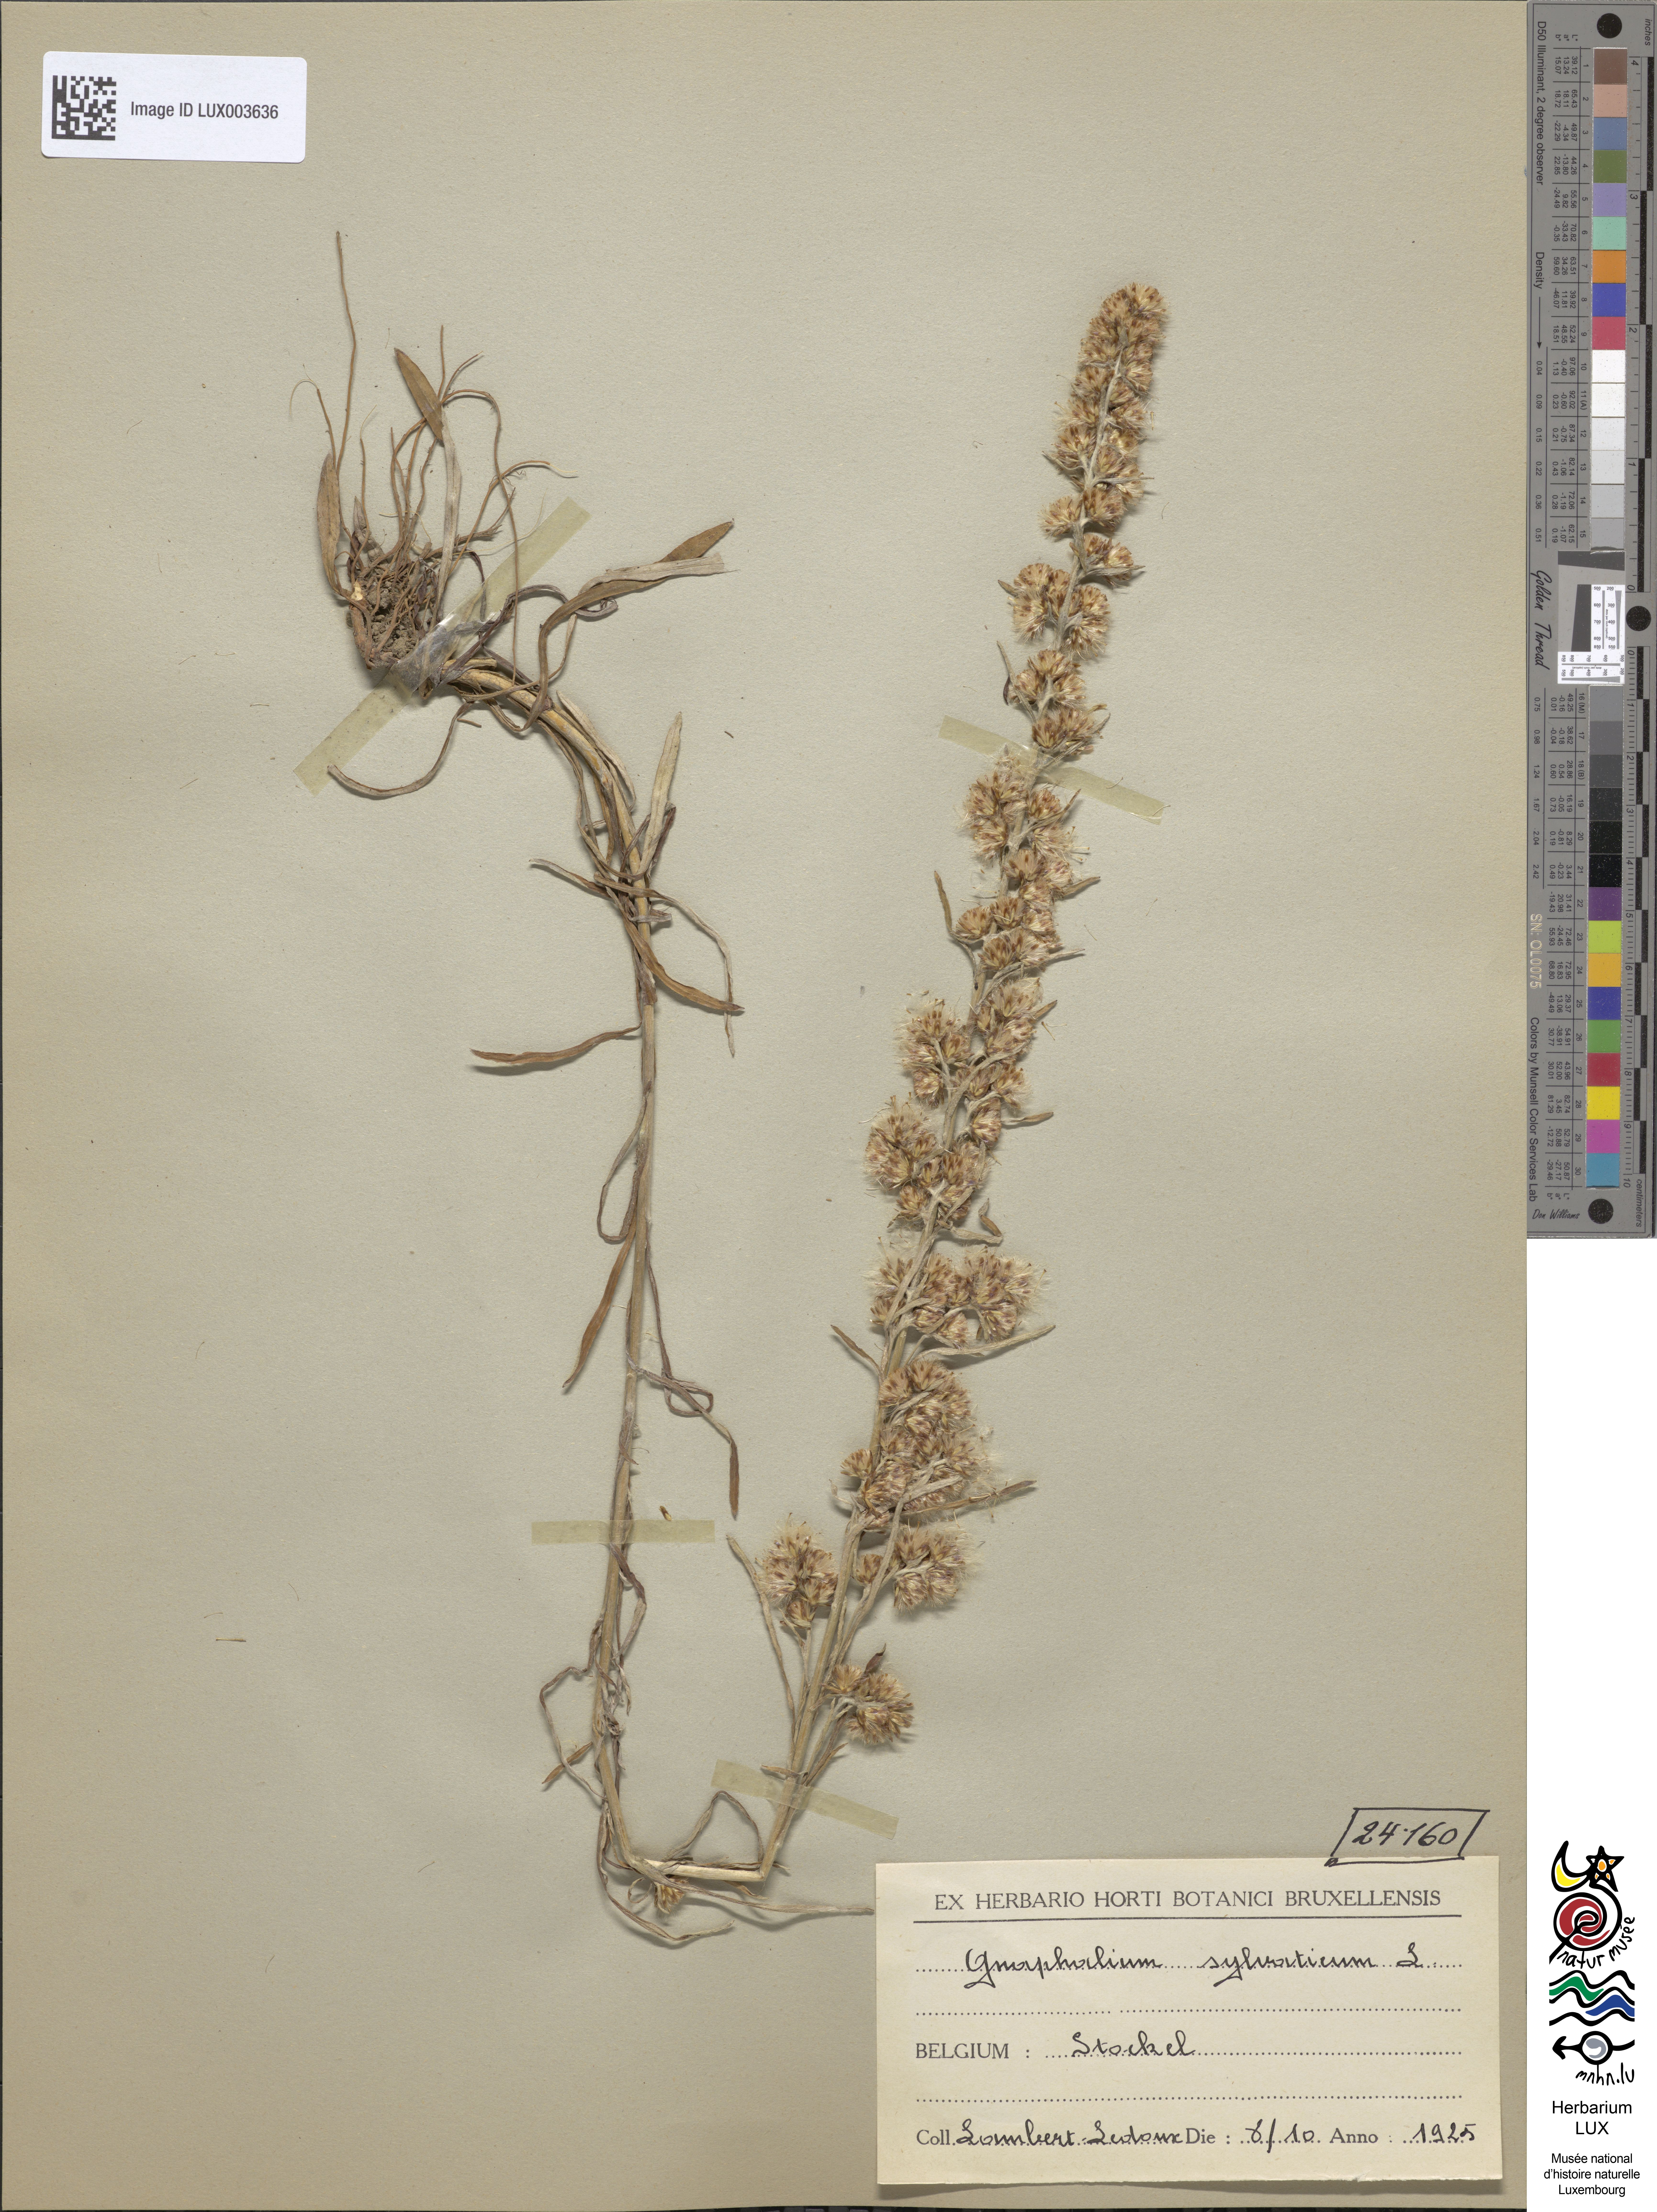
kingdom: Plantae
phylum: Tracheophyta
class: Magnoliopsida
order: Asterales
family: Asteraceae
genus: Omalotheca
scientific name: Omalotheca sylvatica
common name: Heath cudweed
